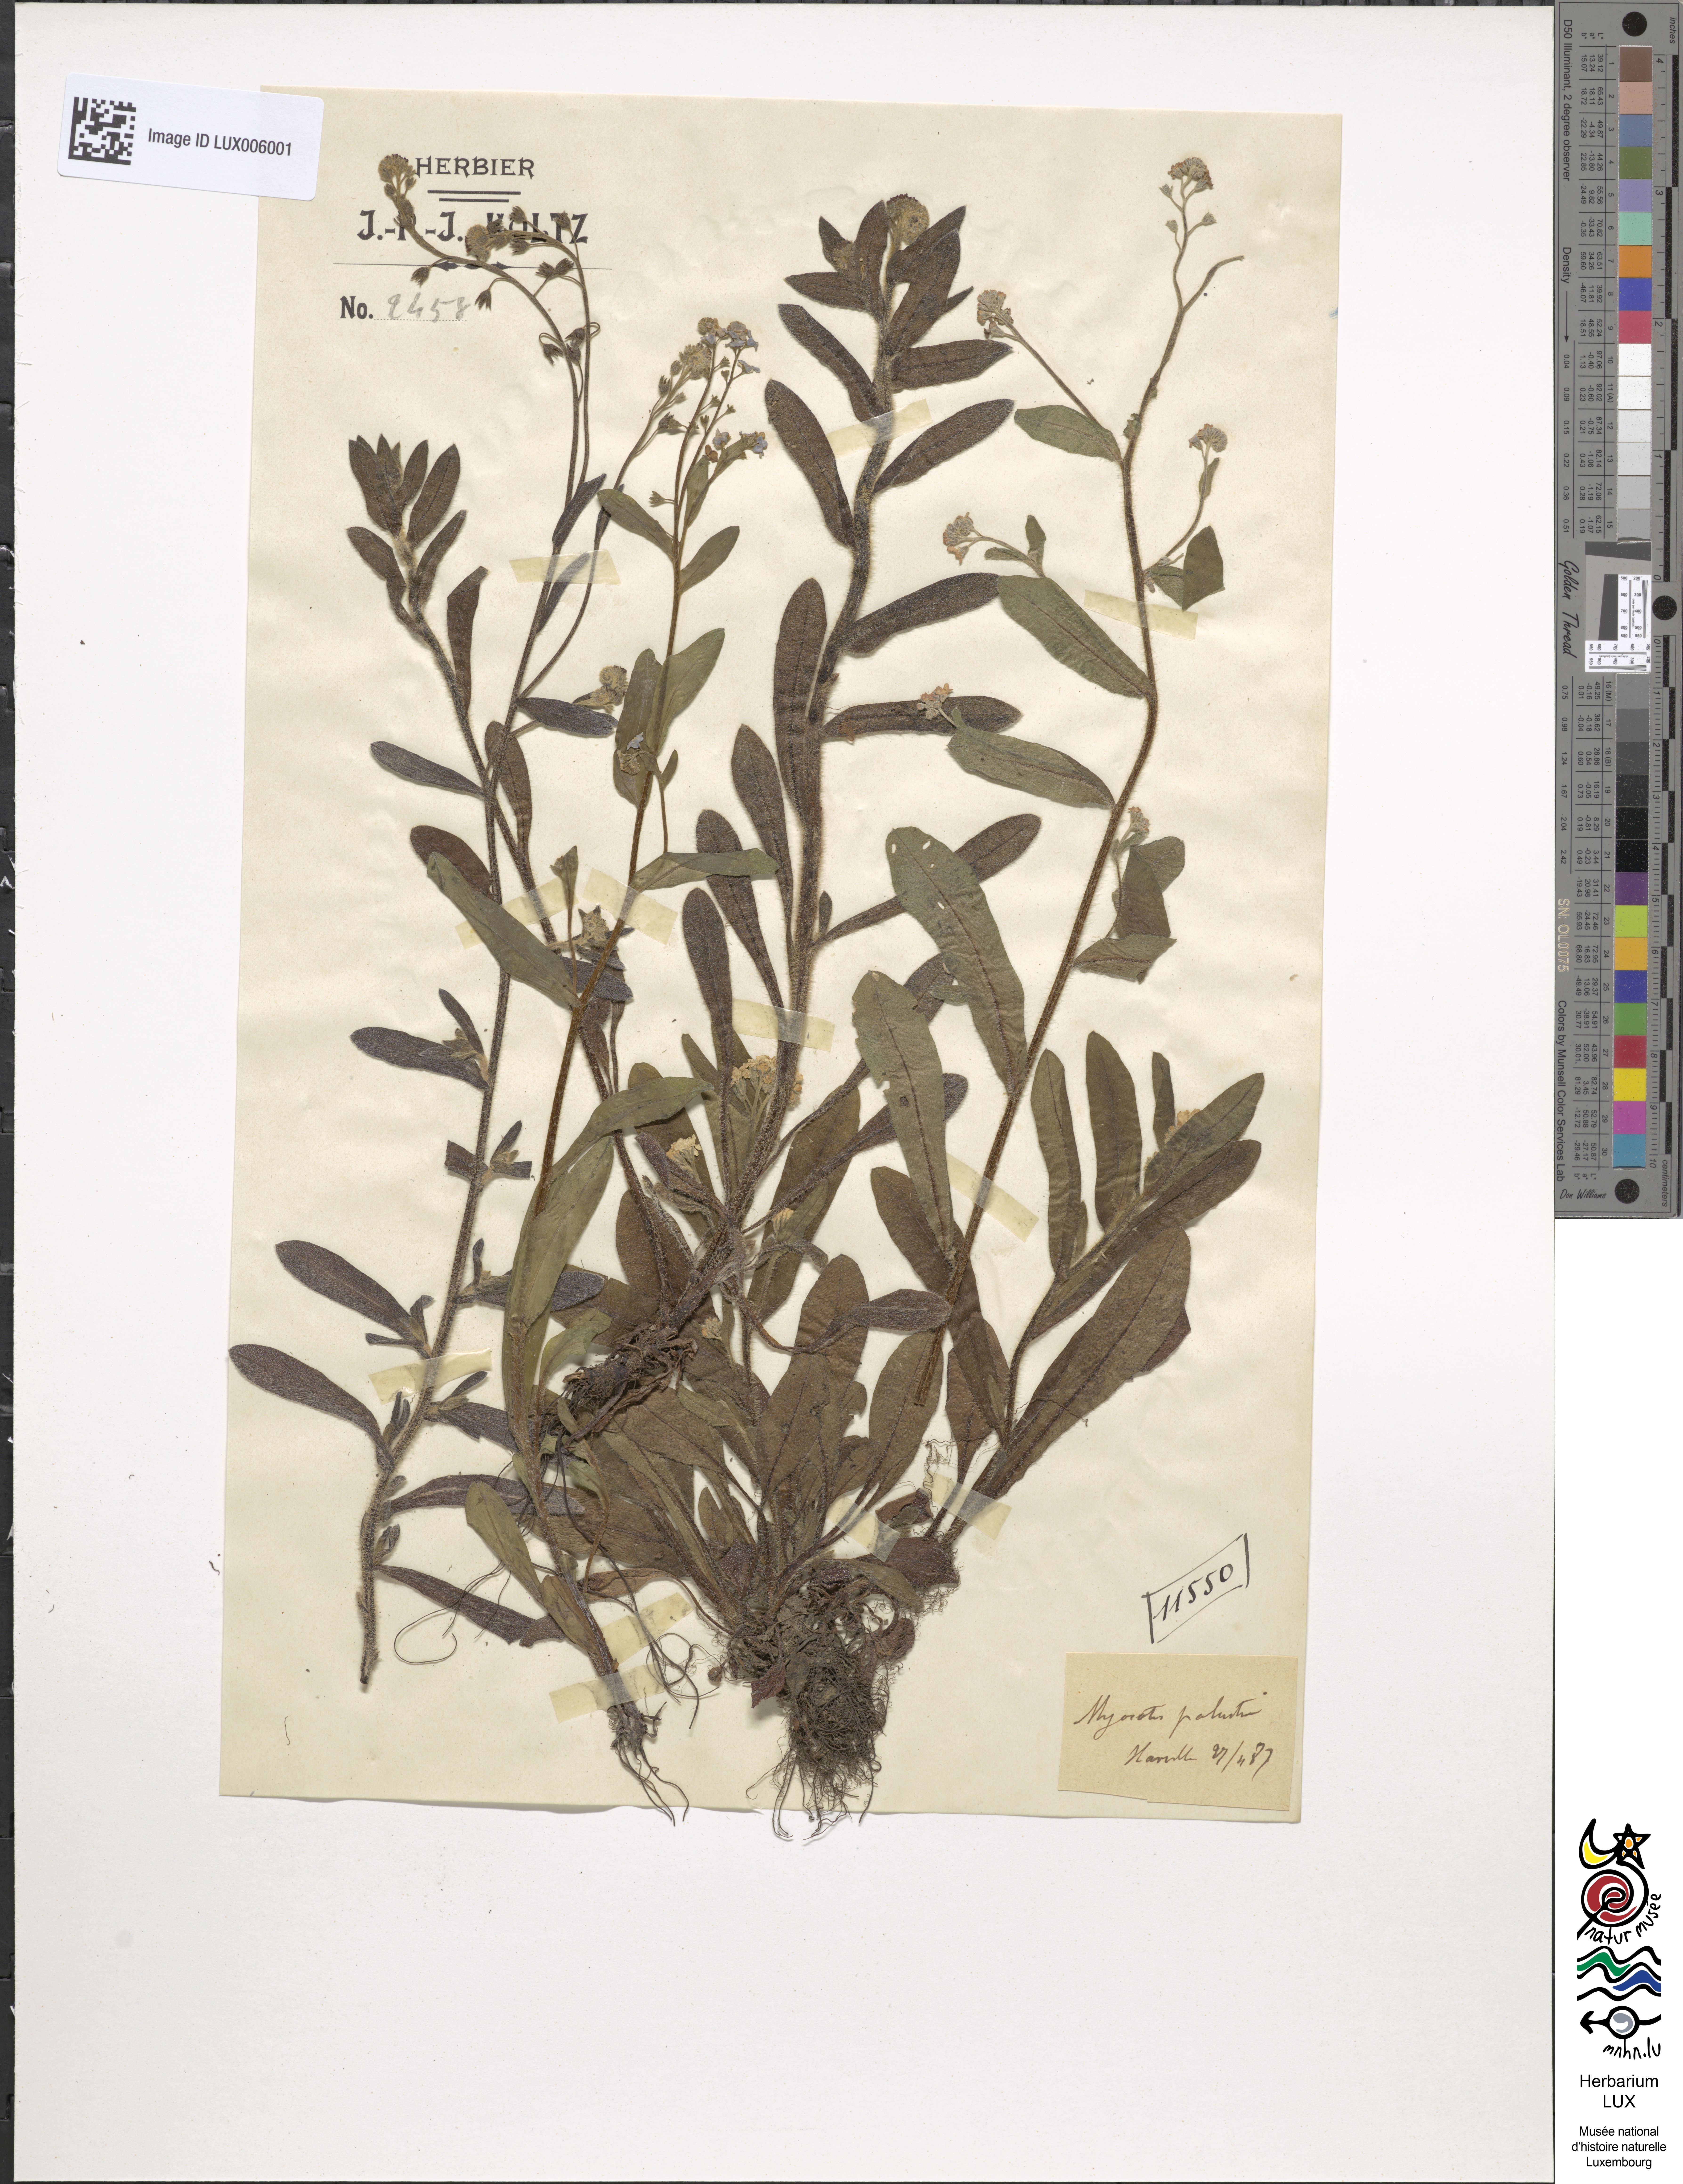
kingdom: Plantae
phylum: Tracheophyta
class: Magnoliopsida
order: Boraginales
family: Boraginaceae
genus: Myosotis
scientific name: Myosotis scorpioides
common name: Water forget-me-not
